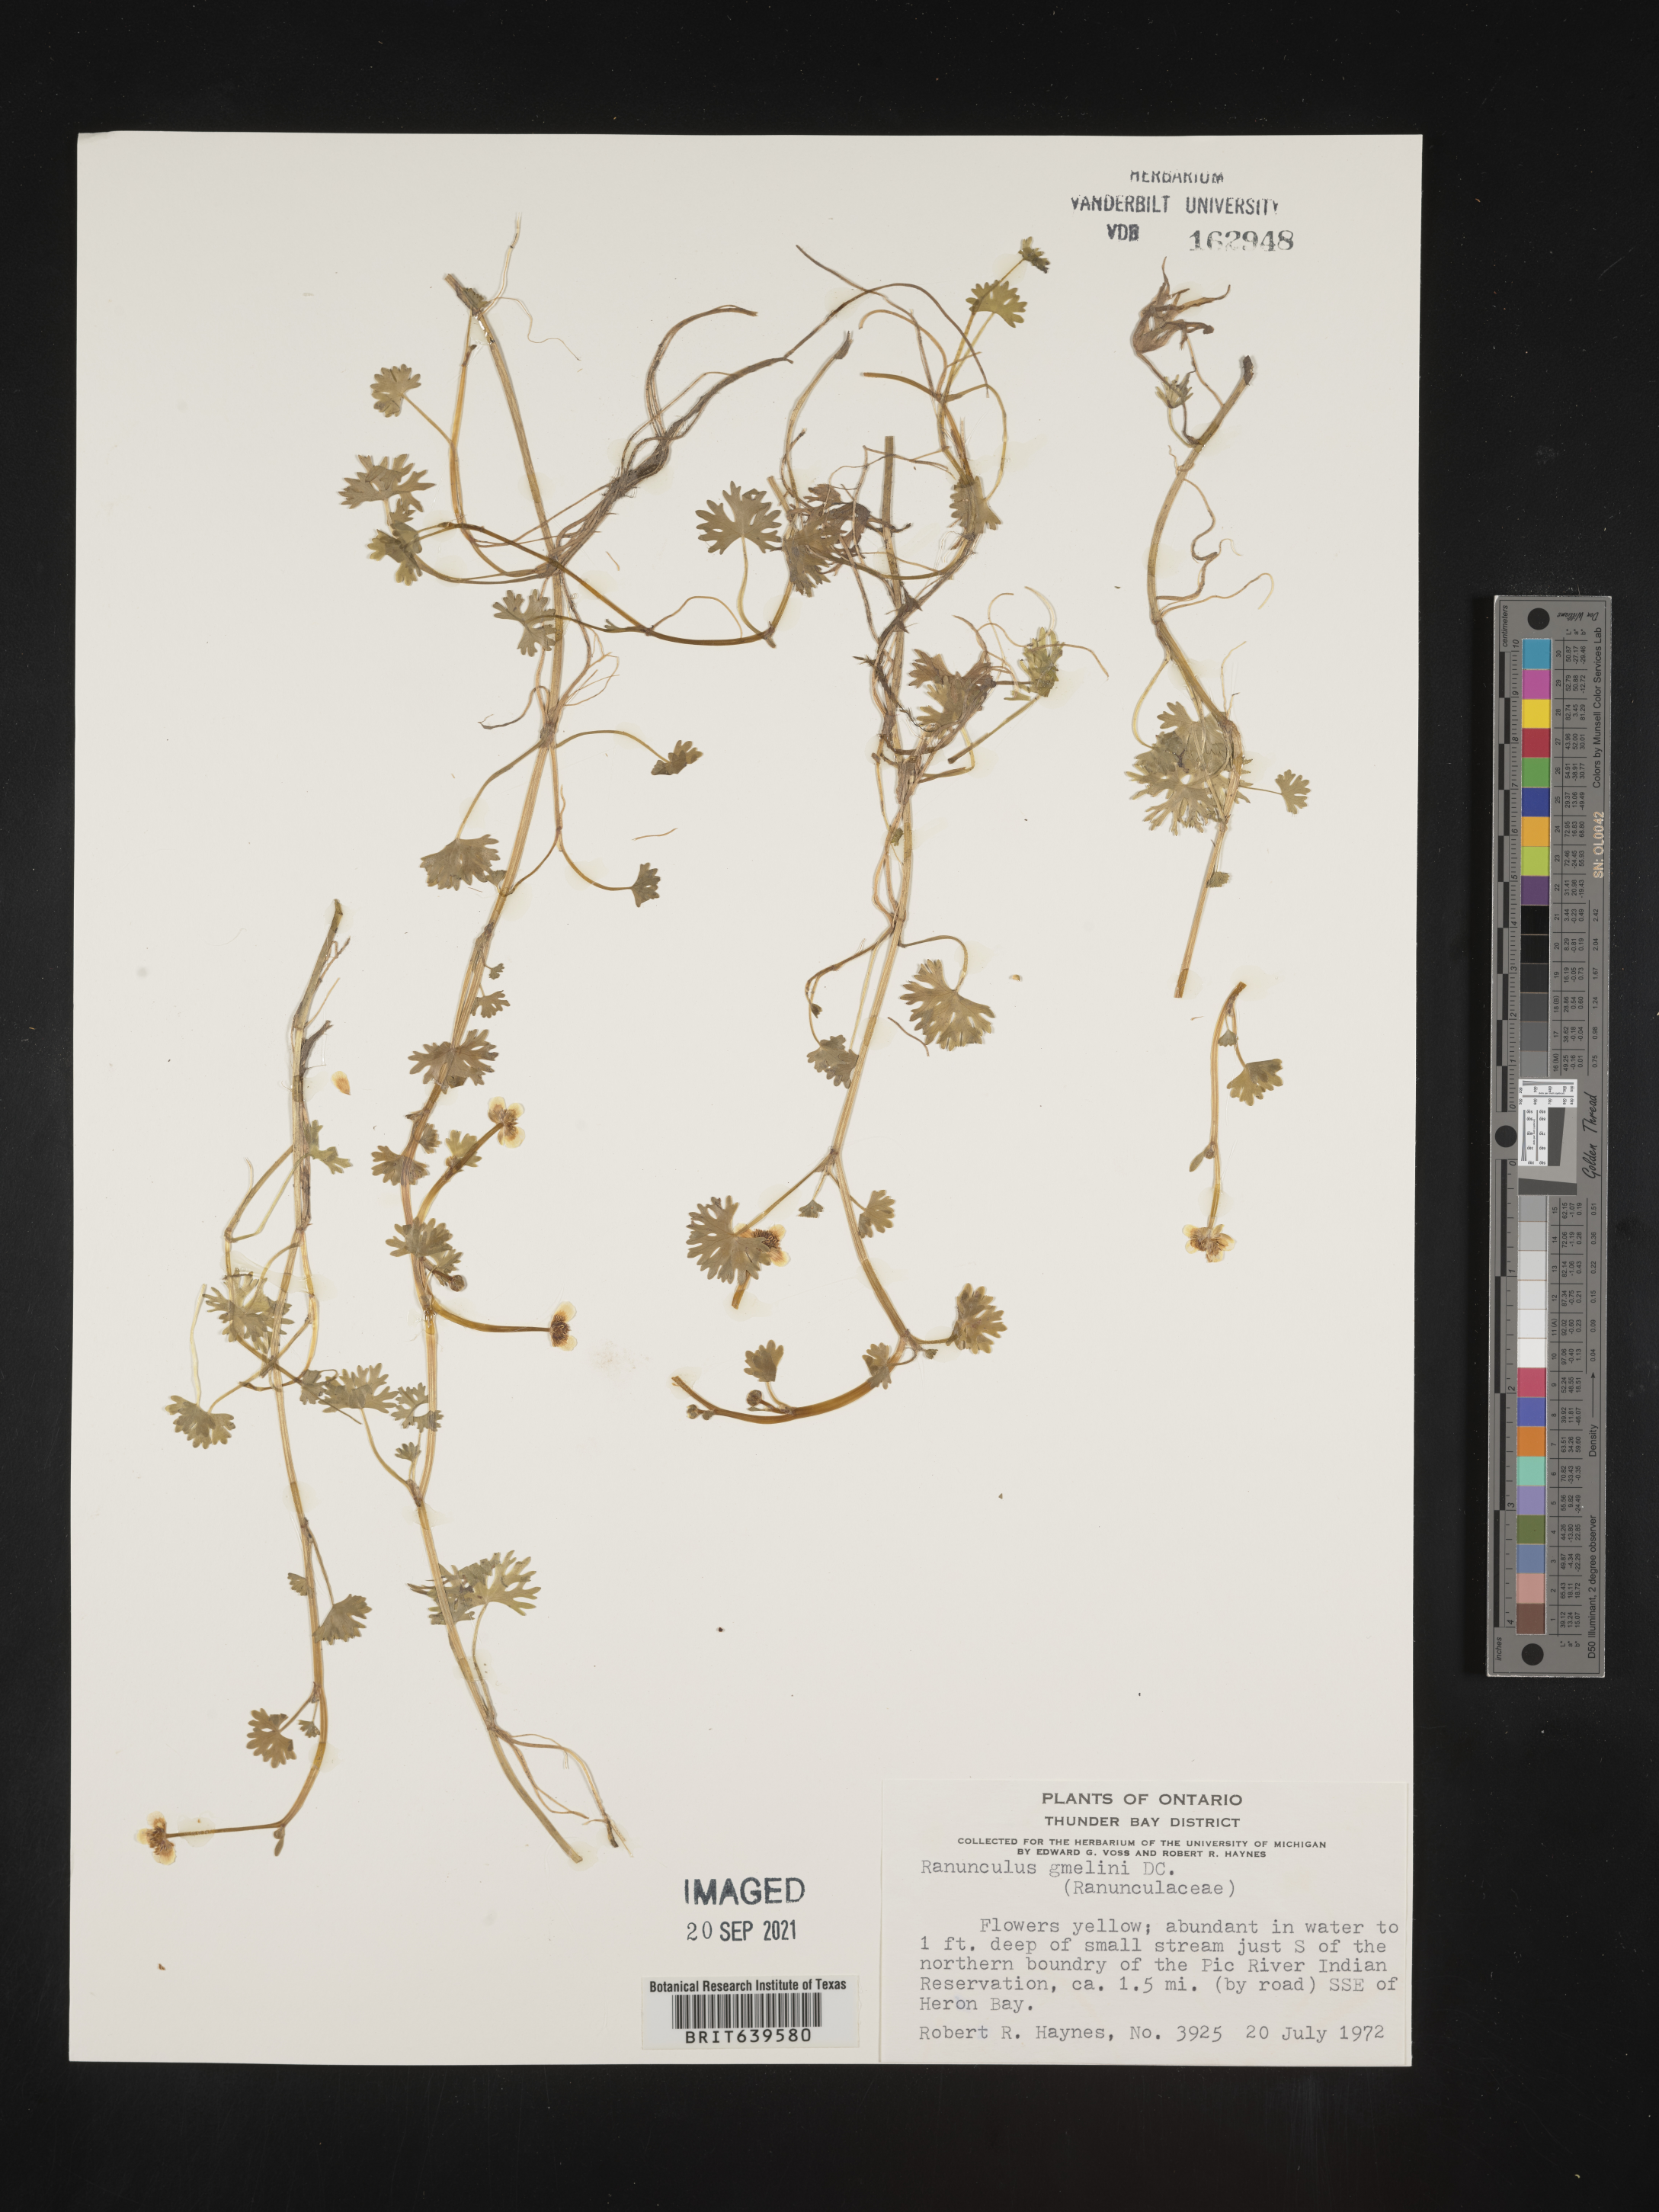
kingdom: Plantae
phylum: Tracheophyta
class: Magnoliopsida
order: Ranunculales
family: Ranunculaceae
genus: Ranunculus
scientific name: Ranunculus
